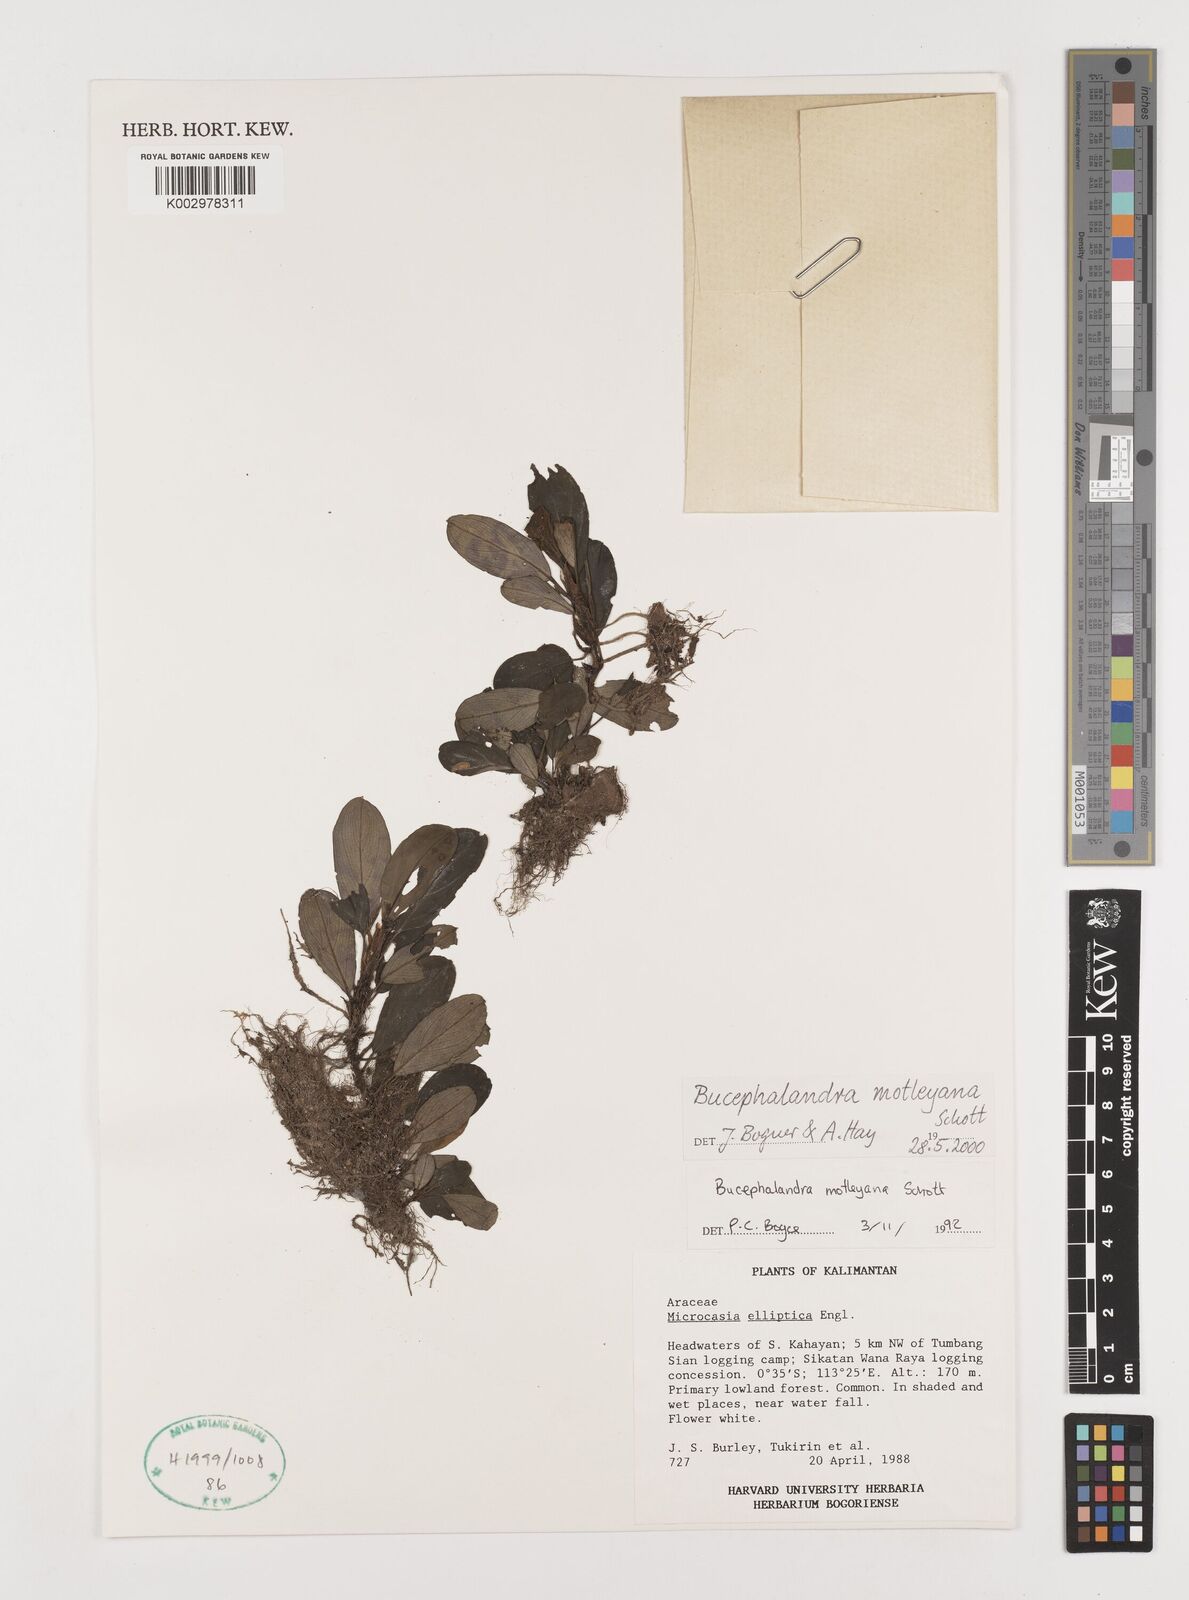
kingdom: Plantae
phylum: Tracheophyta
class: Liliopsida
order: Alismatales
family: Araceae
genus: Bucephalandra
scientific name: Bucephalandra motleyana
